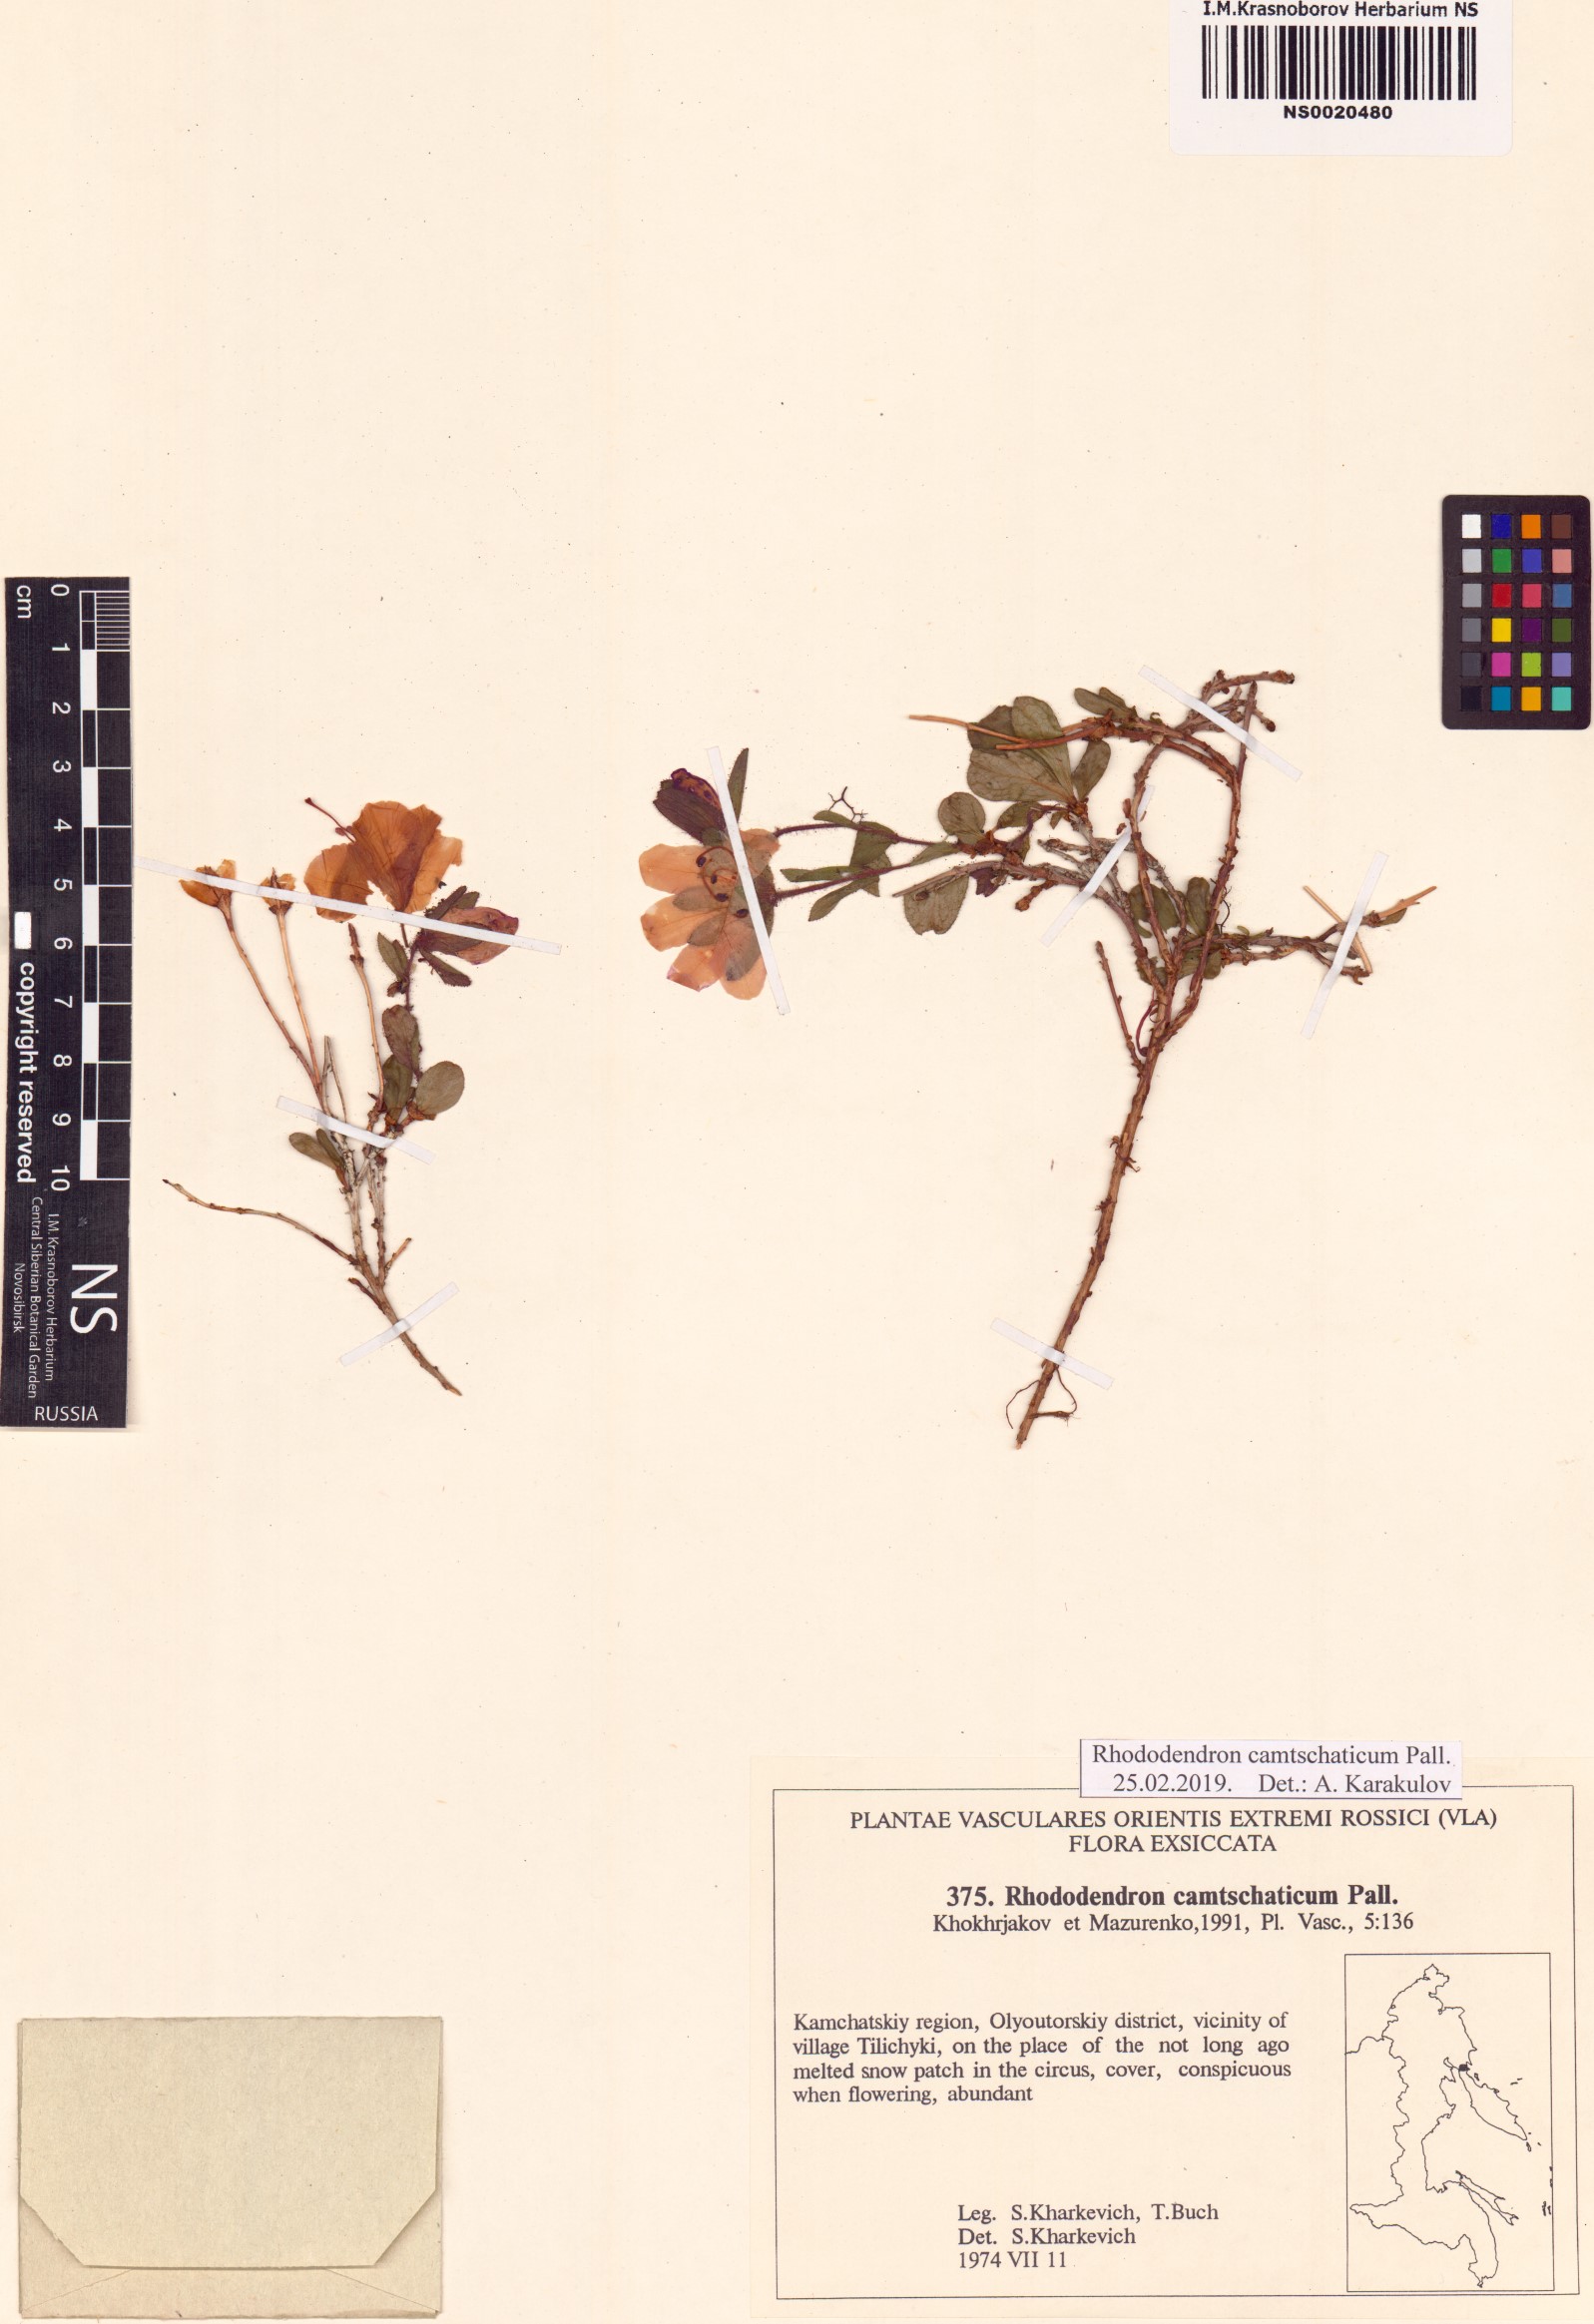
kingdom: Plantae
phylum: Tracheophyta
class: Magnoliopsida
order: Ericales
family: Ericaceae
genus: Rhododendron
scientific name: Rhododendron camtschaticum
